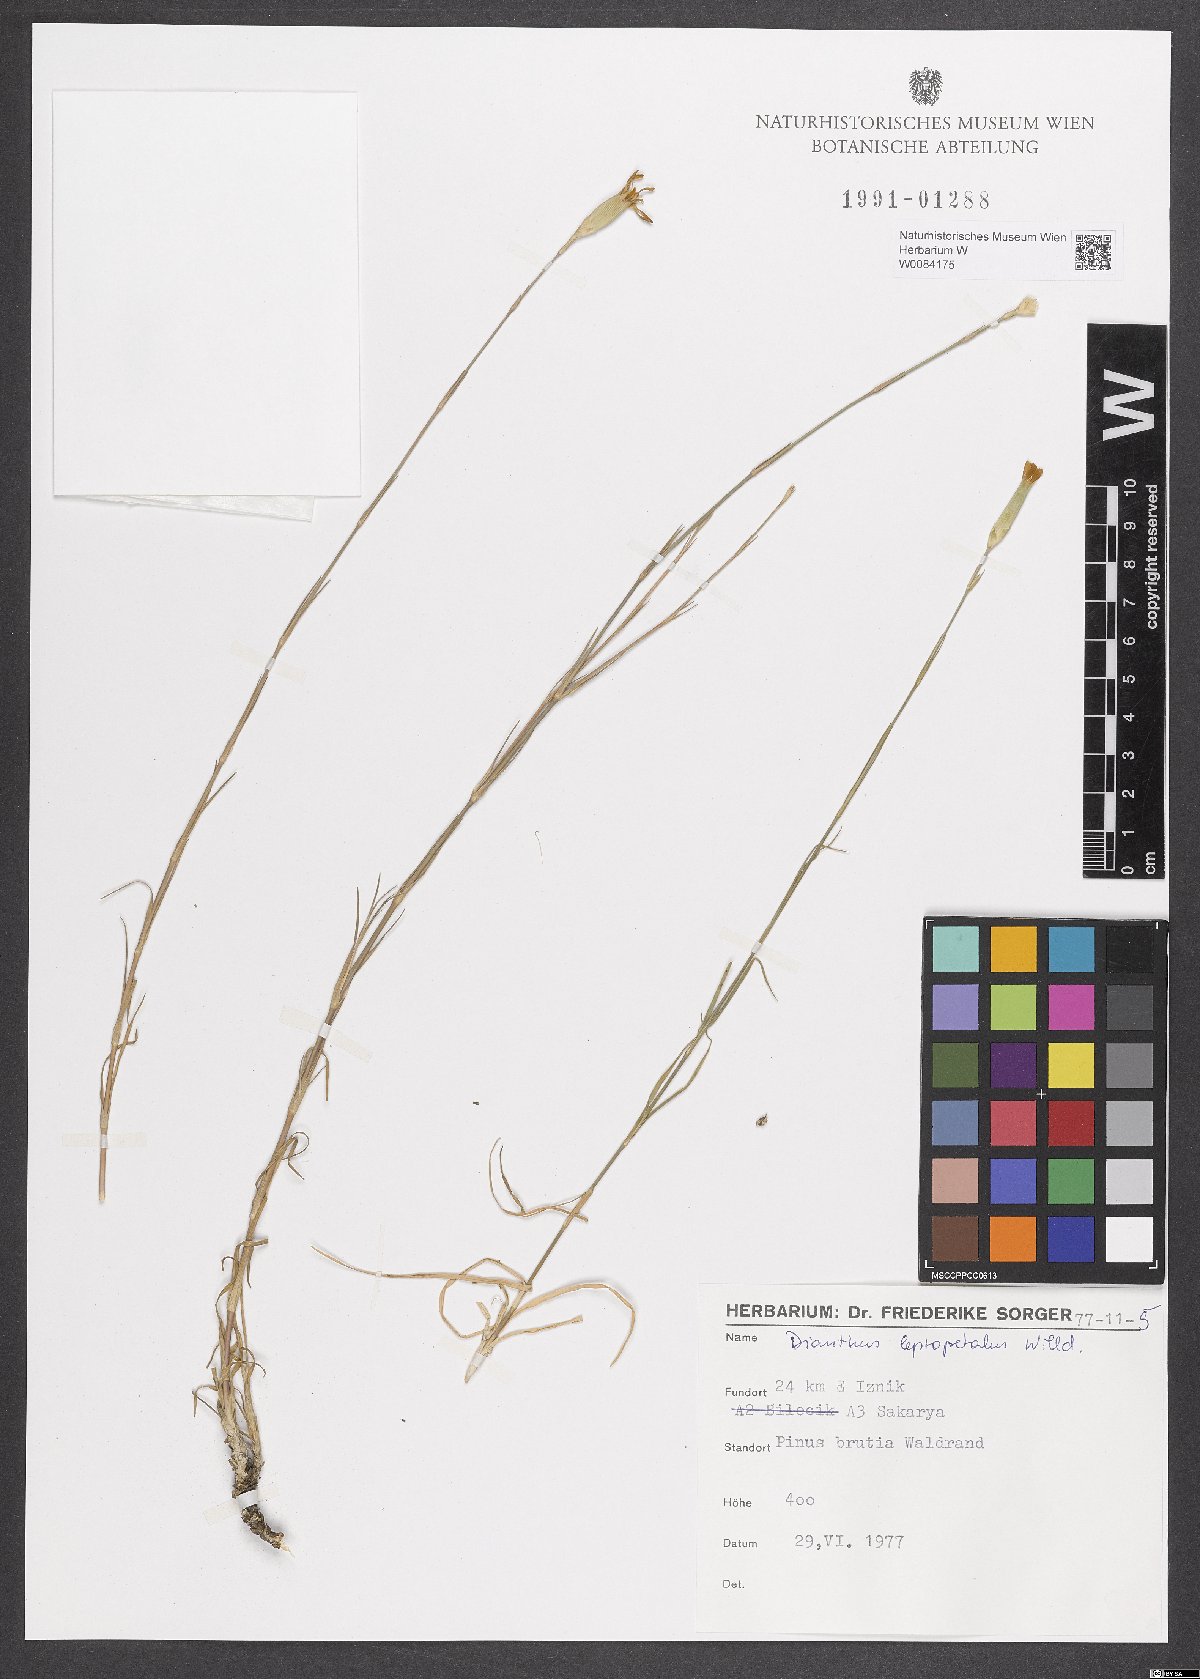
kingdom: Plantae
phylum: Tracheophyta
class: Magnoliopsida
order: Caryophyllales
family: Caryophyllaceae
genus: Dianthus
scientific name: Dianthus leptopetalus
